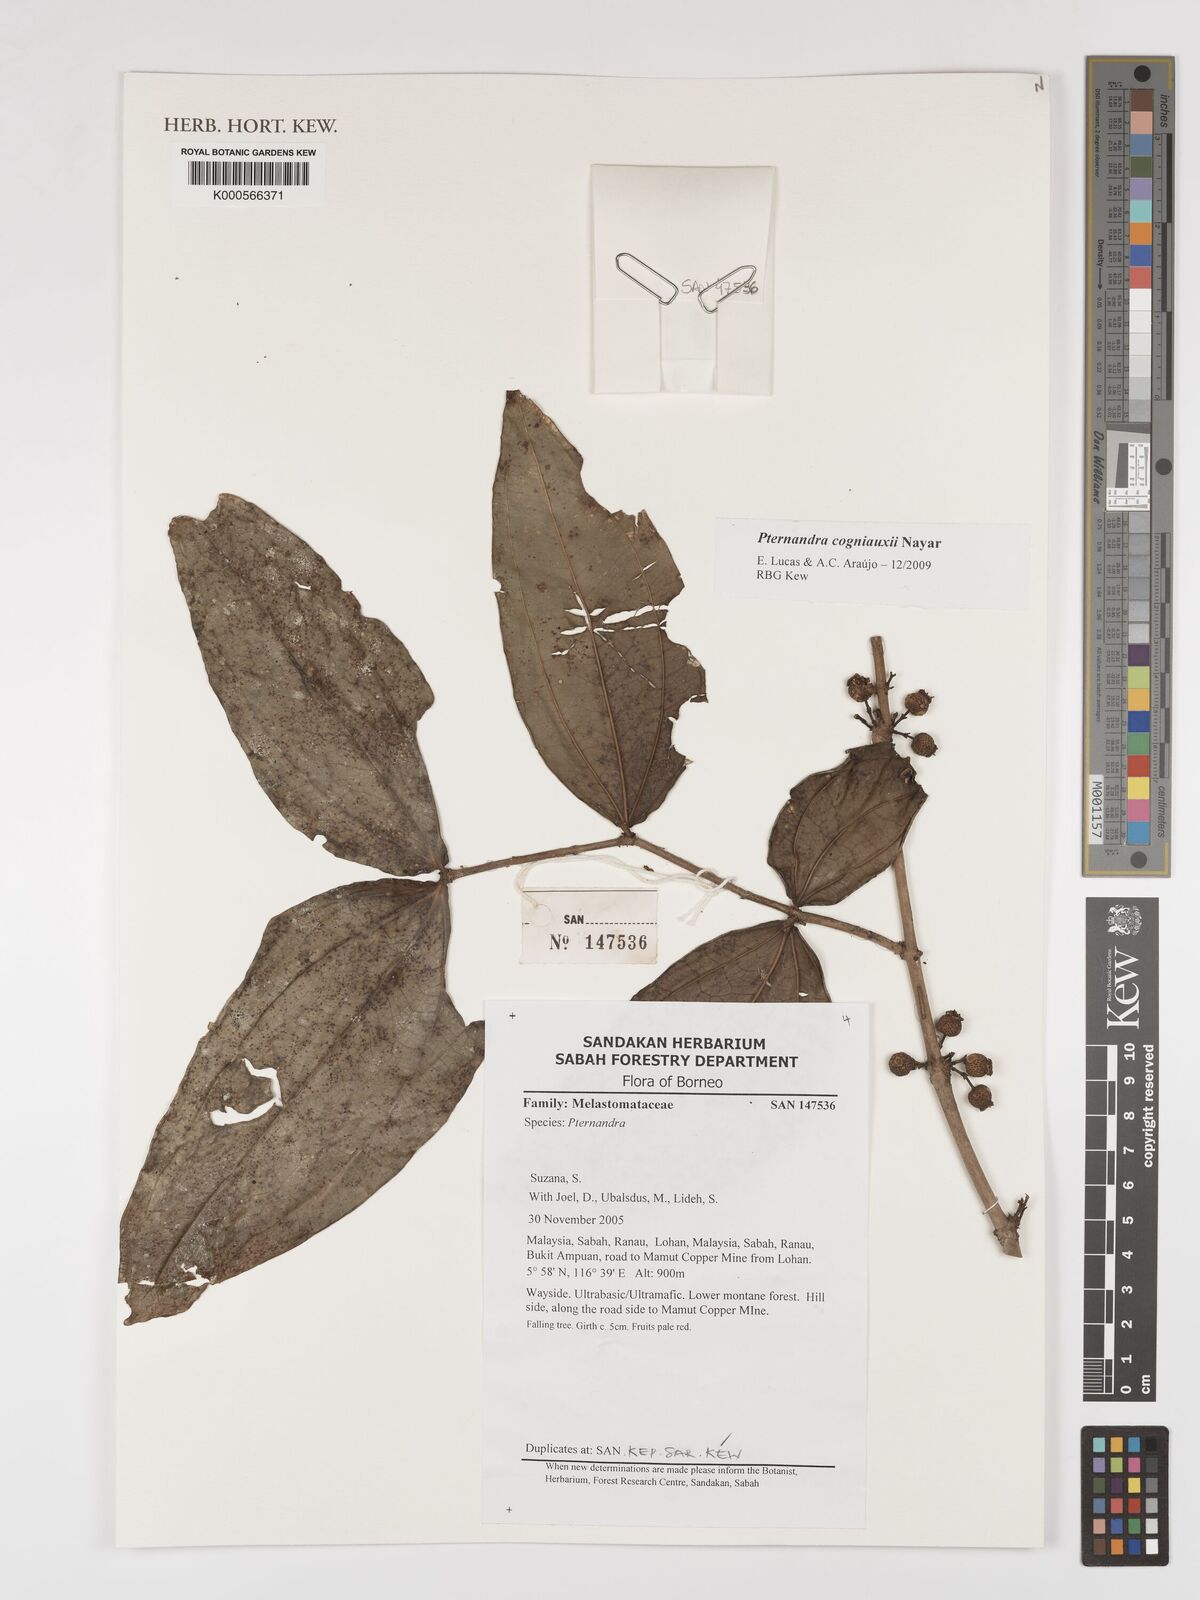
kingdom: Plantae
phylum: Tracheophyta
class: Magnoliopsida
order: Myrtales
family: Melastomataceae
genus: Pternandra
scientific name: Pternandra cogniauxii
